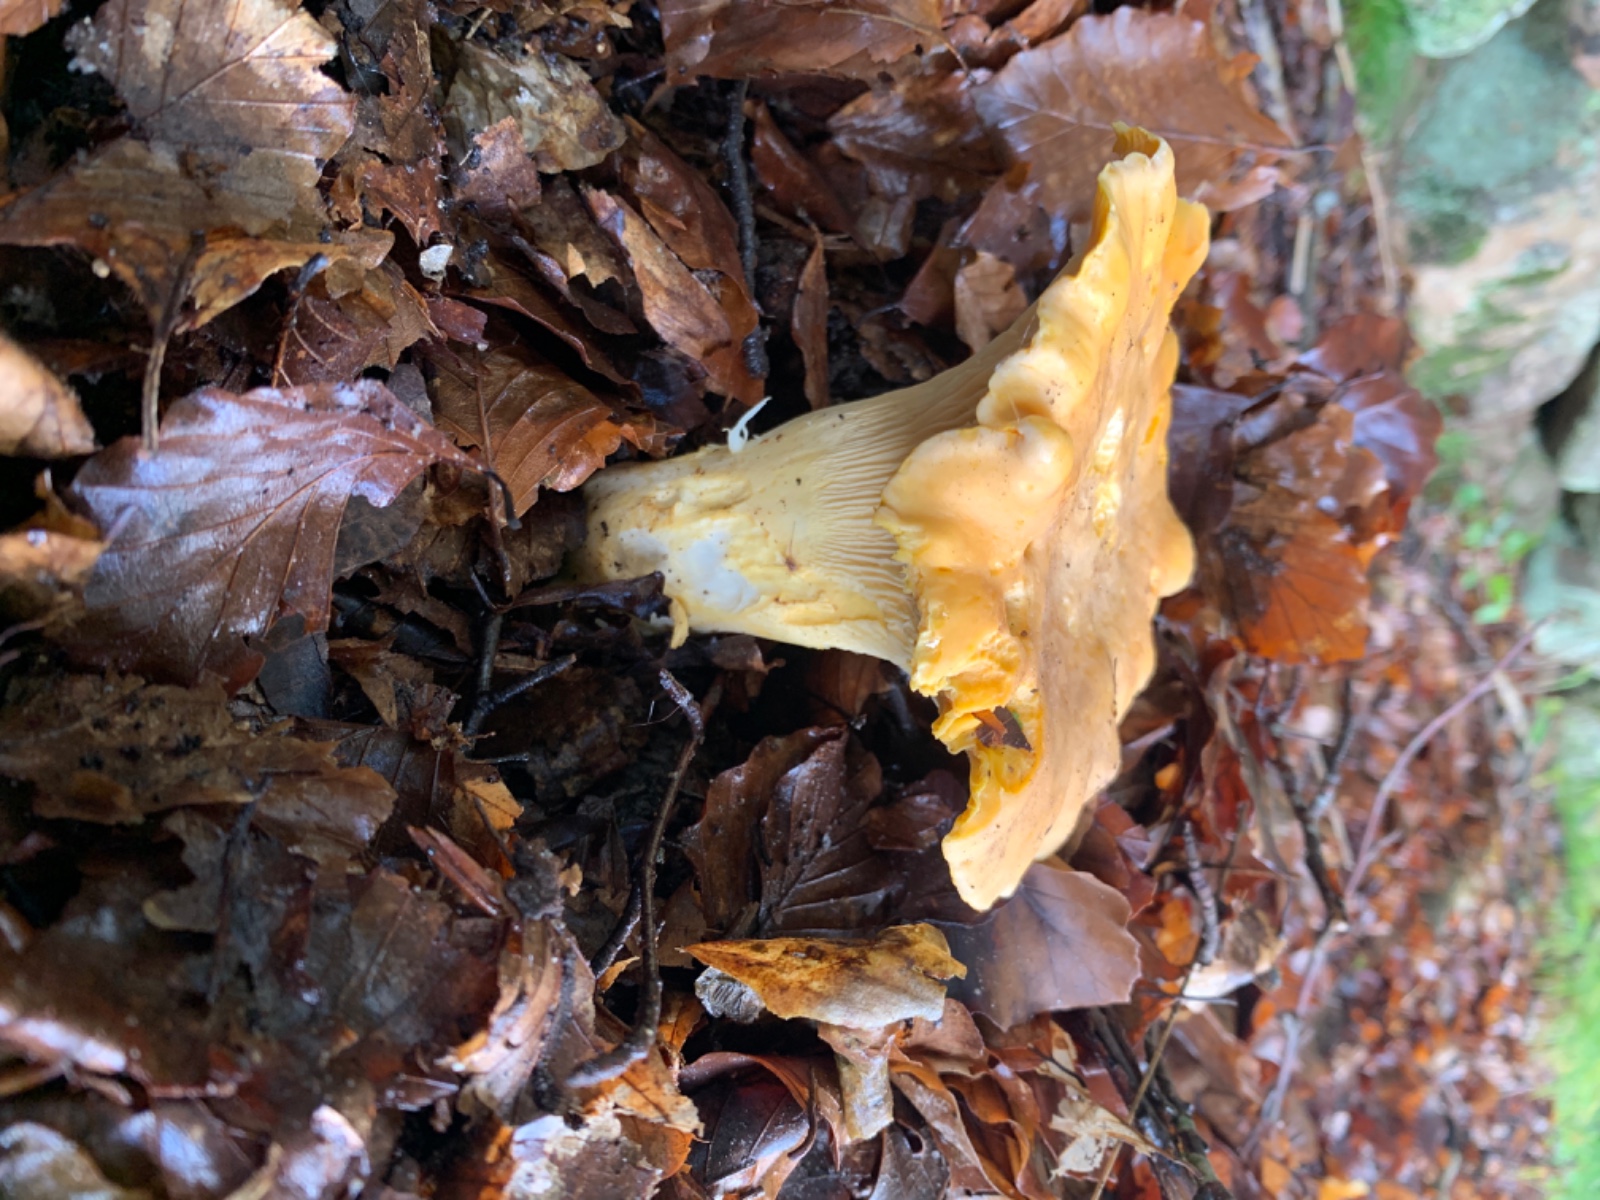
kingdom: Fungi
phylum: Basidiomycota
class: Agaricomycetes
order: Cantharellales
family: Hydnaceae
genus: Cantharellus
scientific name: Cantharellus
